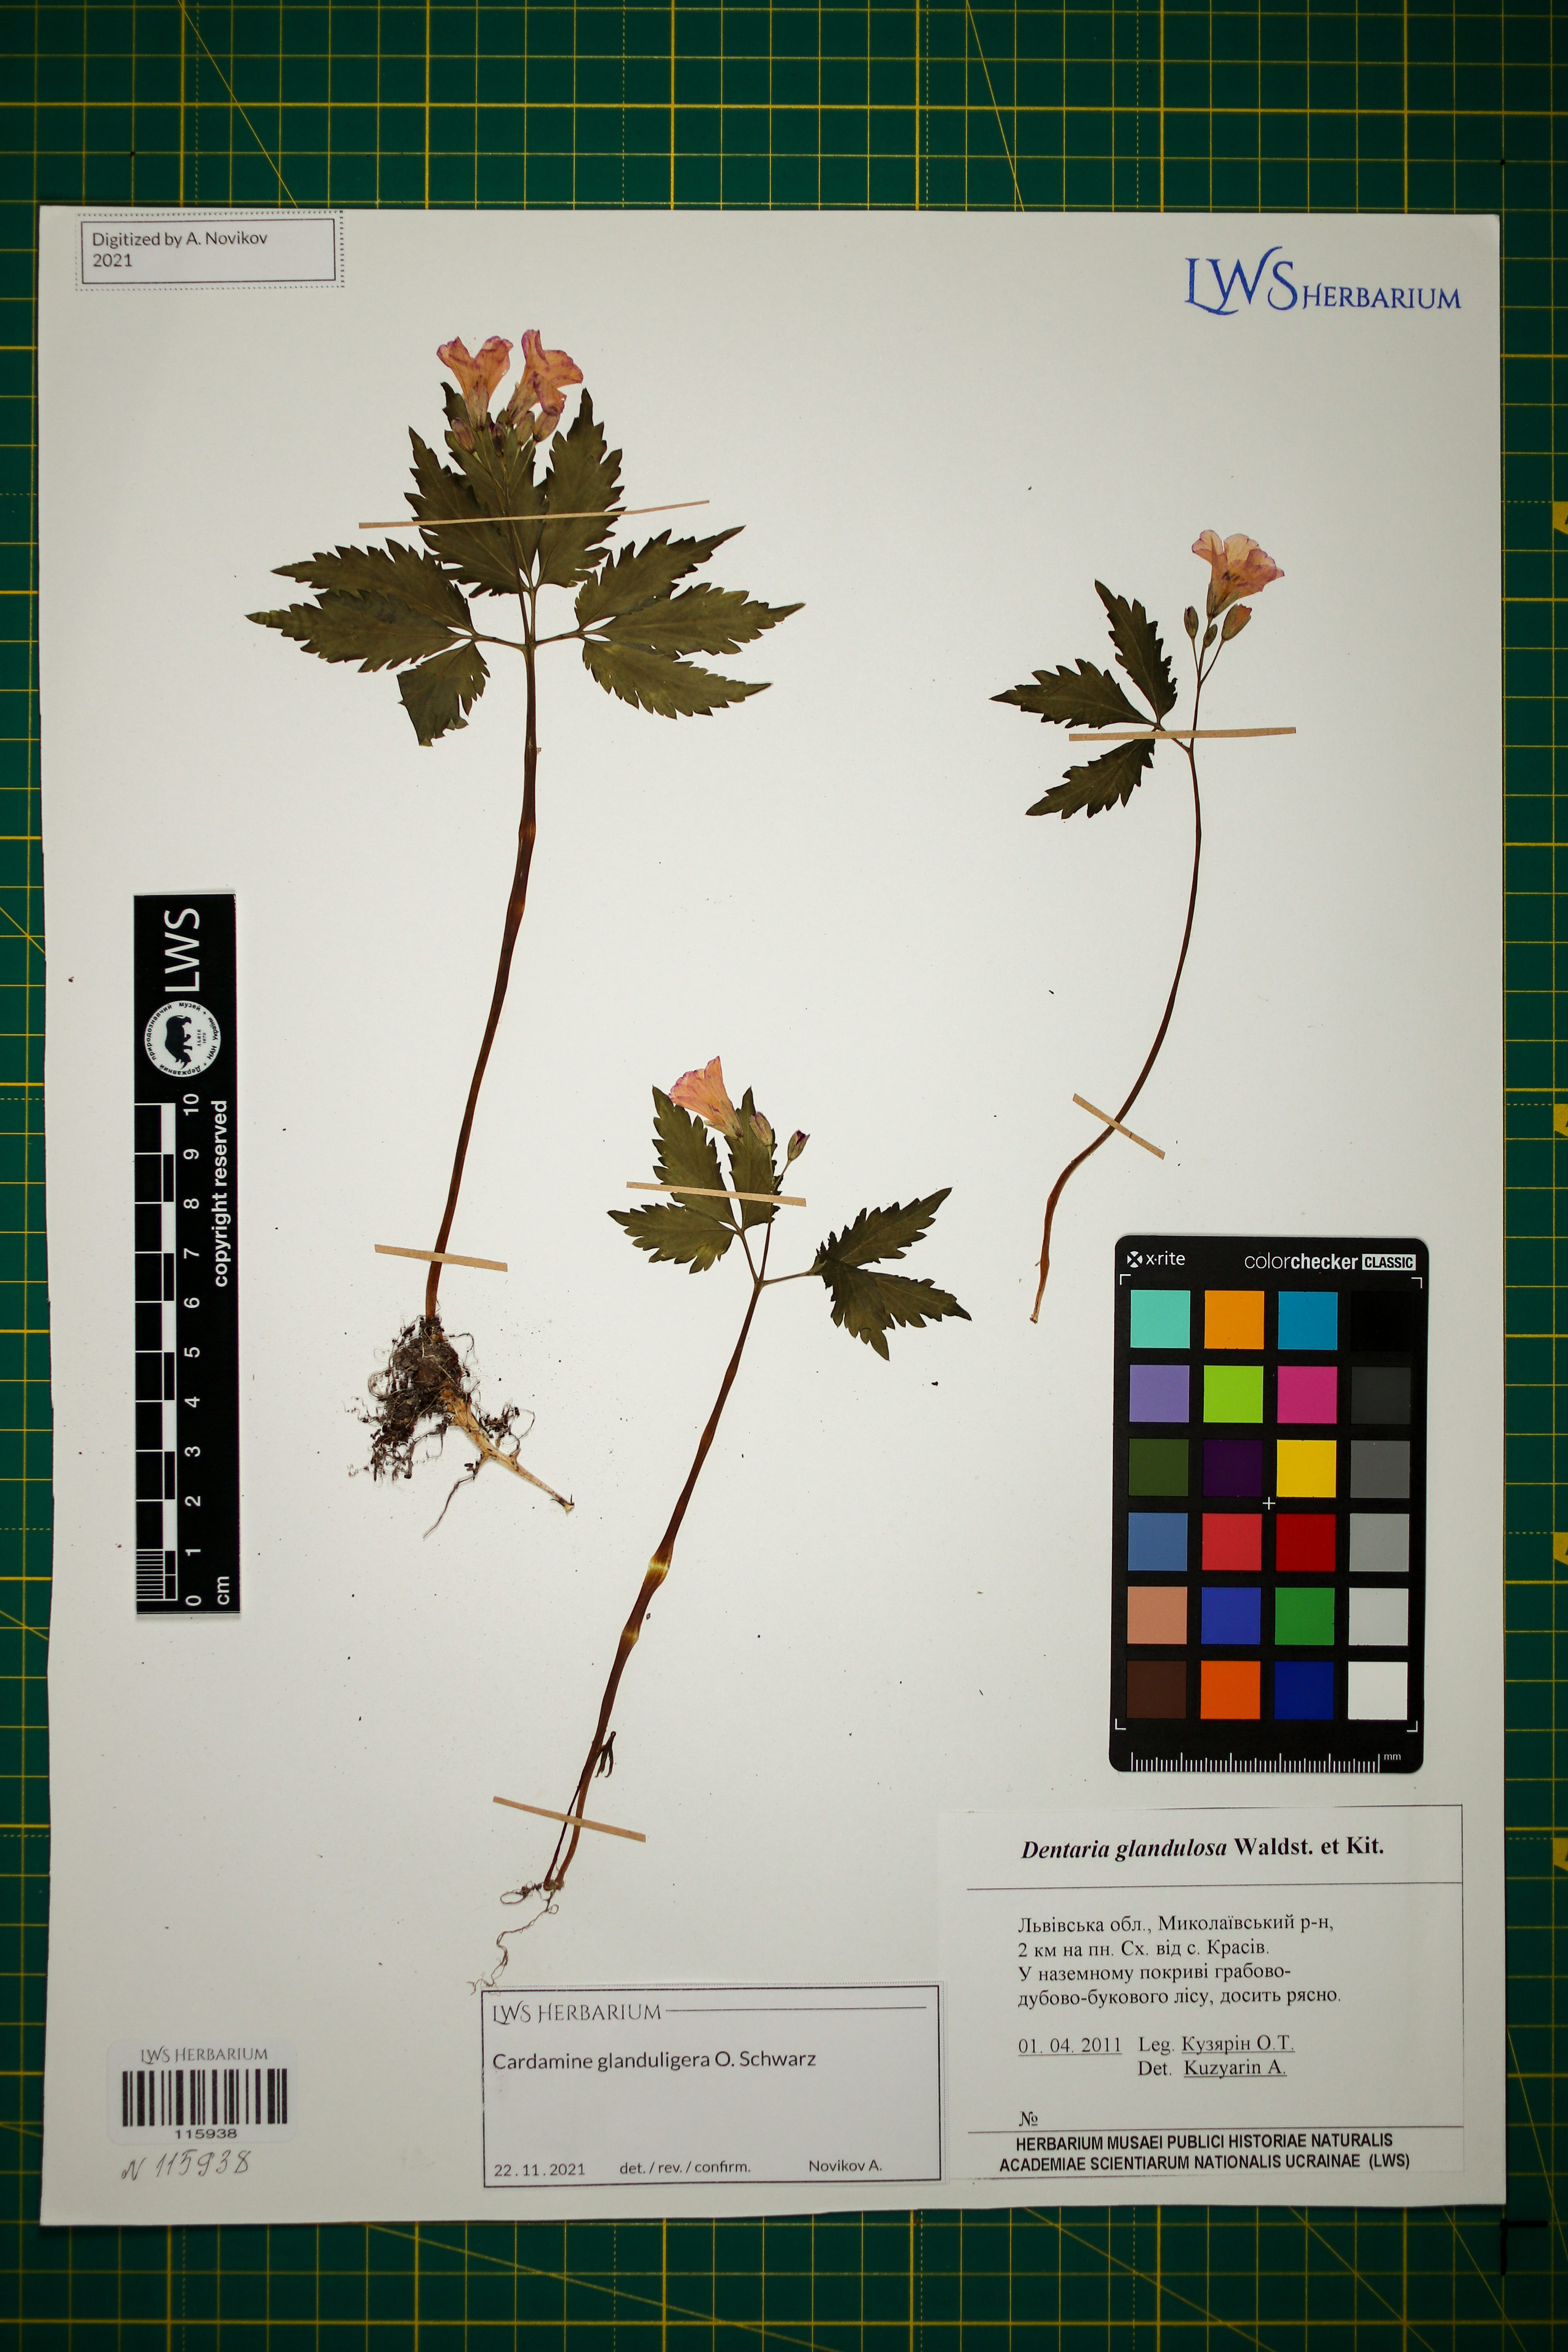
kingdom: Plantae
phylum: Tracheophyta
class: Magnoliopsida
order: Brassicales
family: Brassicaceae
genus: Cardamine
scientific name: Cardamine glanduligera
